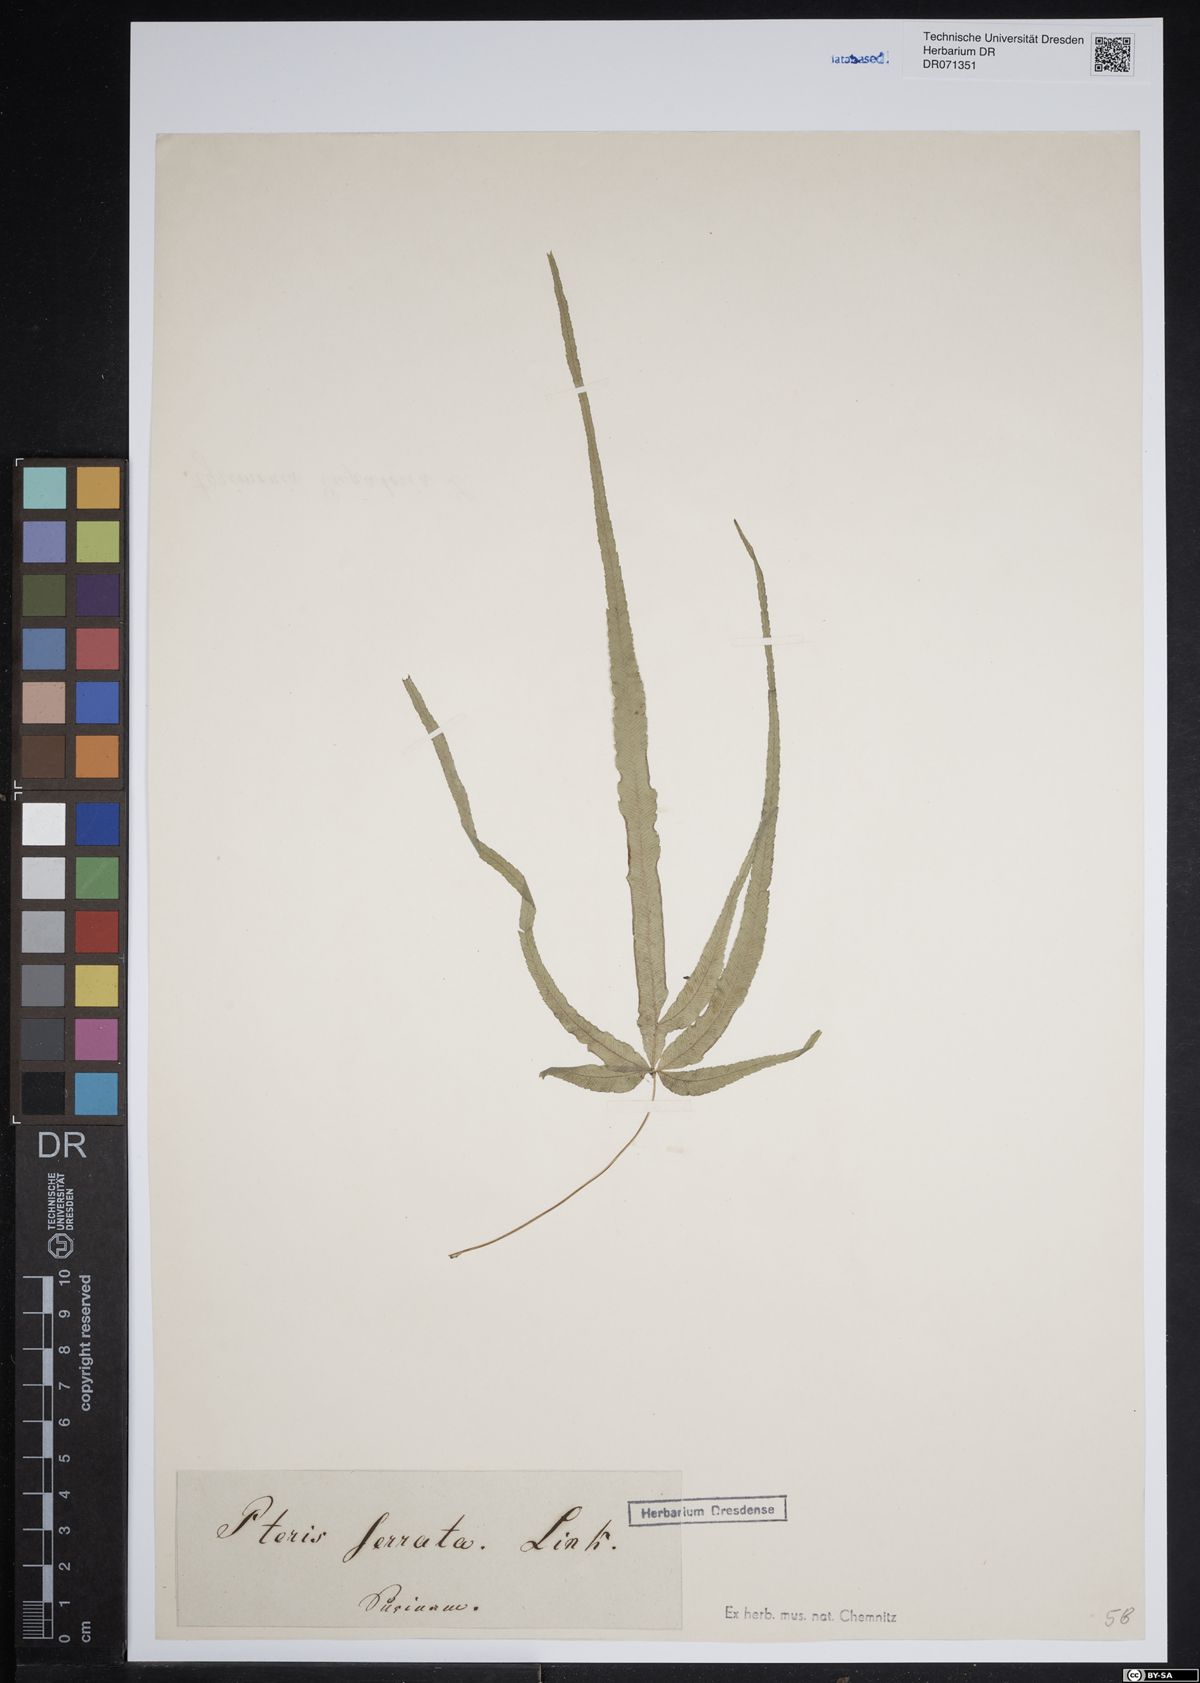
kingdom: Plantae
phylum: Tracheophyta
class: Polypodiopsida
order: Polypodiales
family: Pteridaceae
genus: Pteris
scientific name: Pteris
